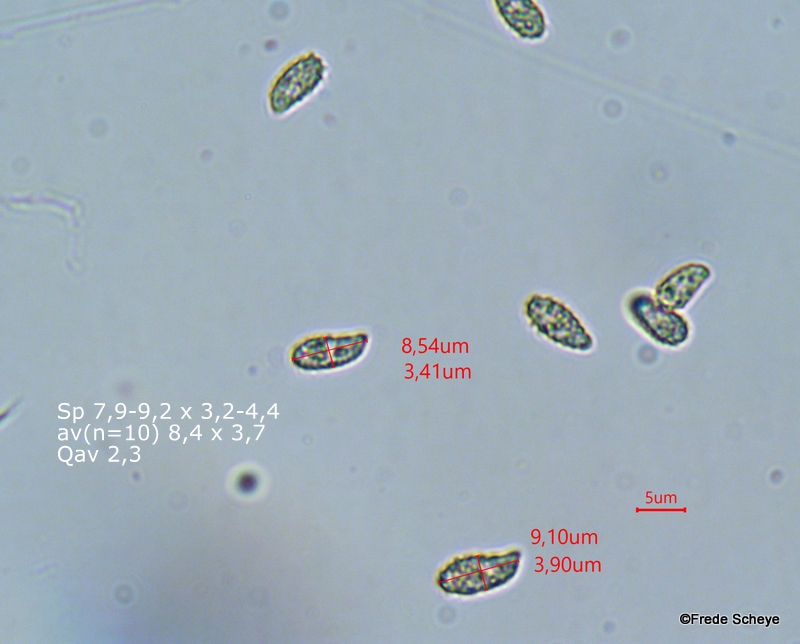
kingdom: Fungi
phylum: Basidiomycota
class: Agaricomycetes
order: Gomphales
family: Gomphaceae
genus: Phaeoclavulina
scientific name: Phaeoclavulina abietina
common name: gulgrøn koralsvamp
